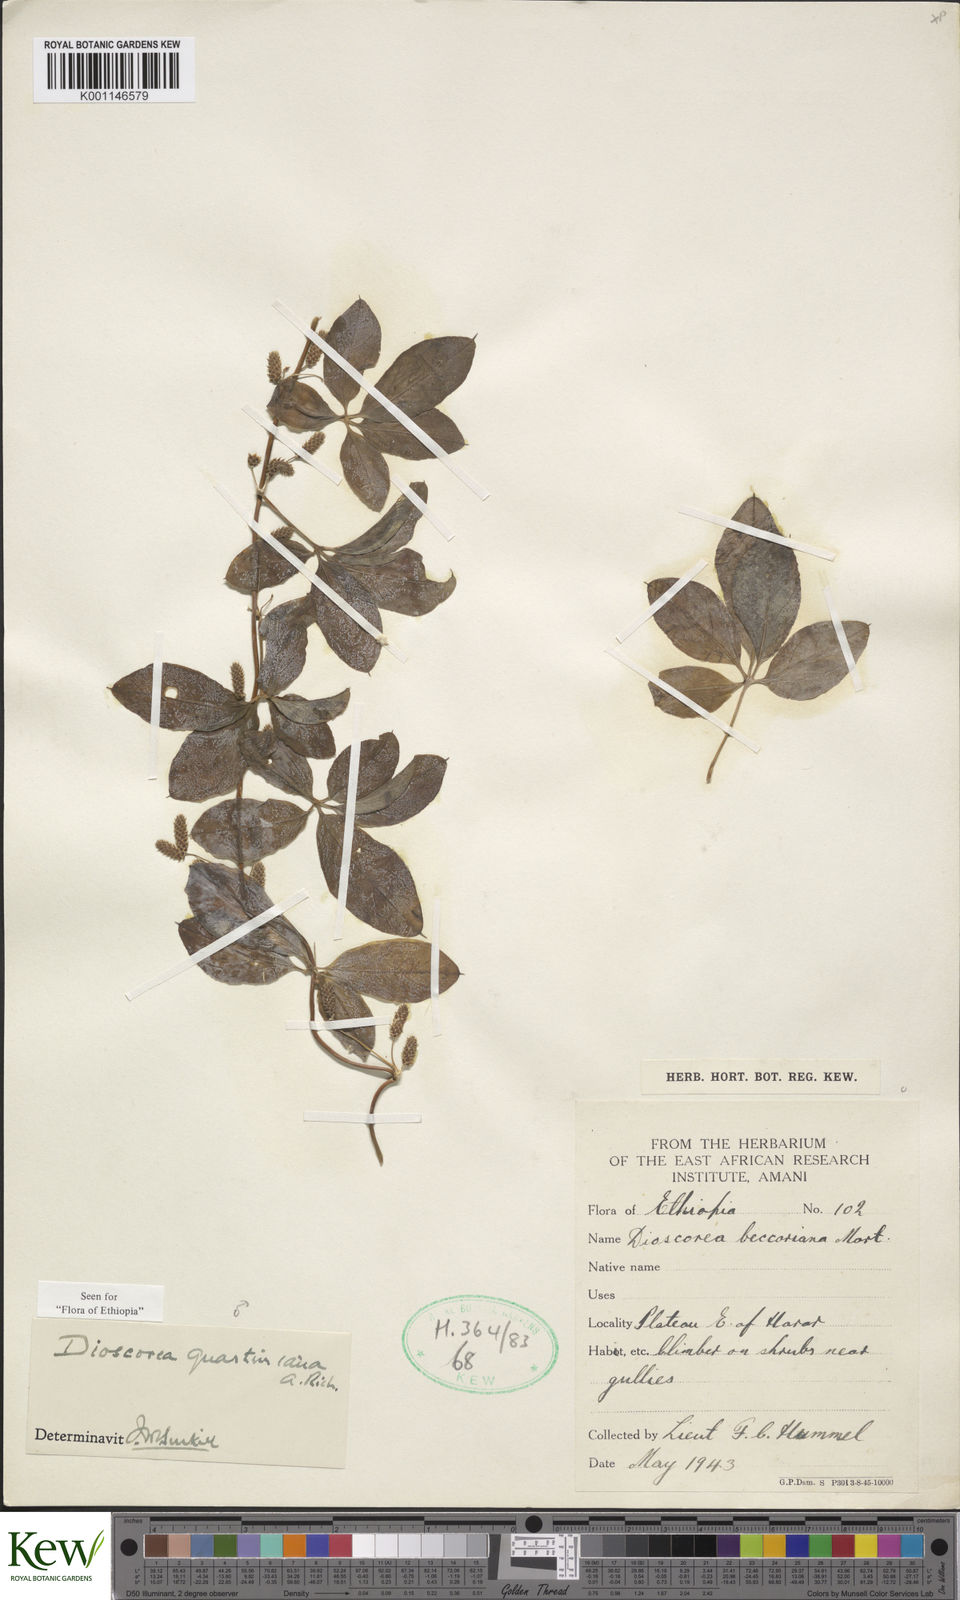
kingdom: Plantae
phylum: Tracheophyta
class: Liliopsida
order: Dioscoreales
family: Dioscoreaceae
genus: Dioscorea
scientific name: Dioscorea quartiniana
